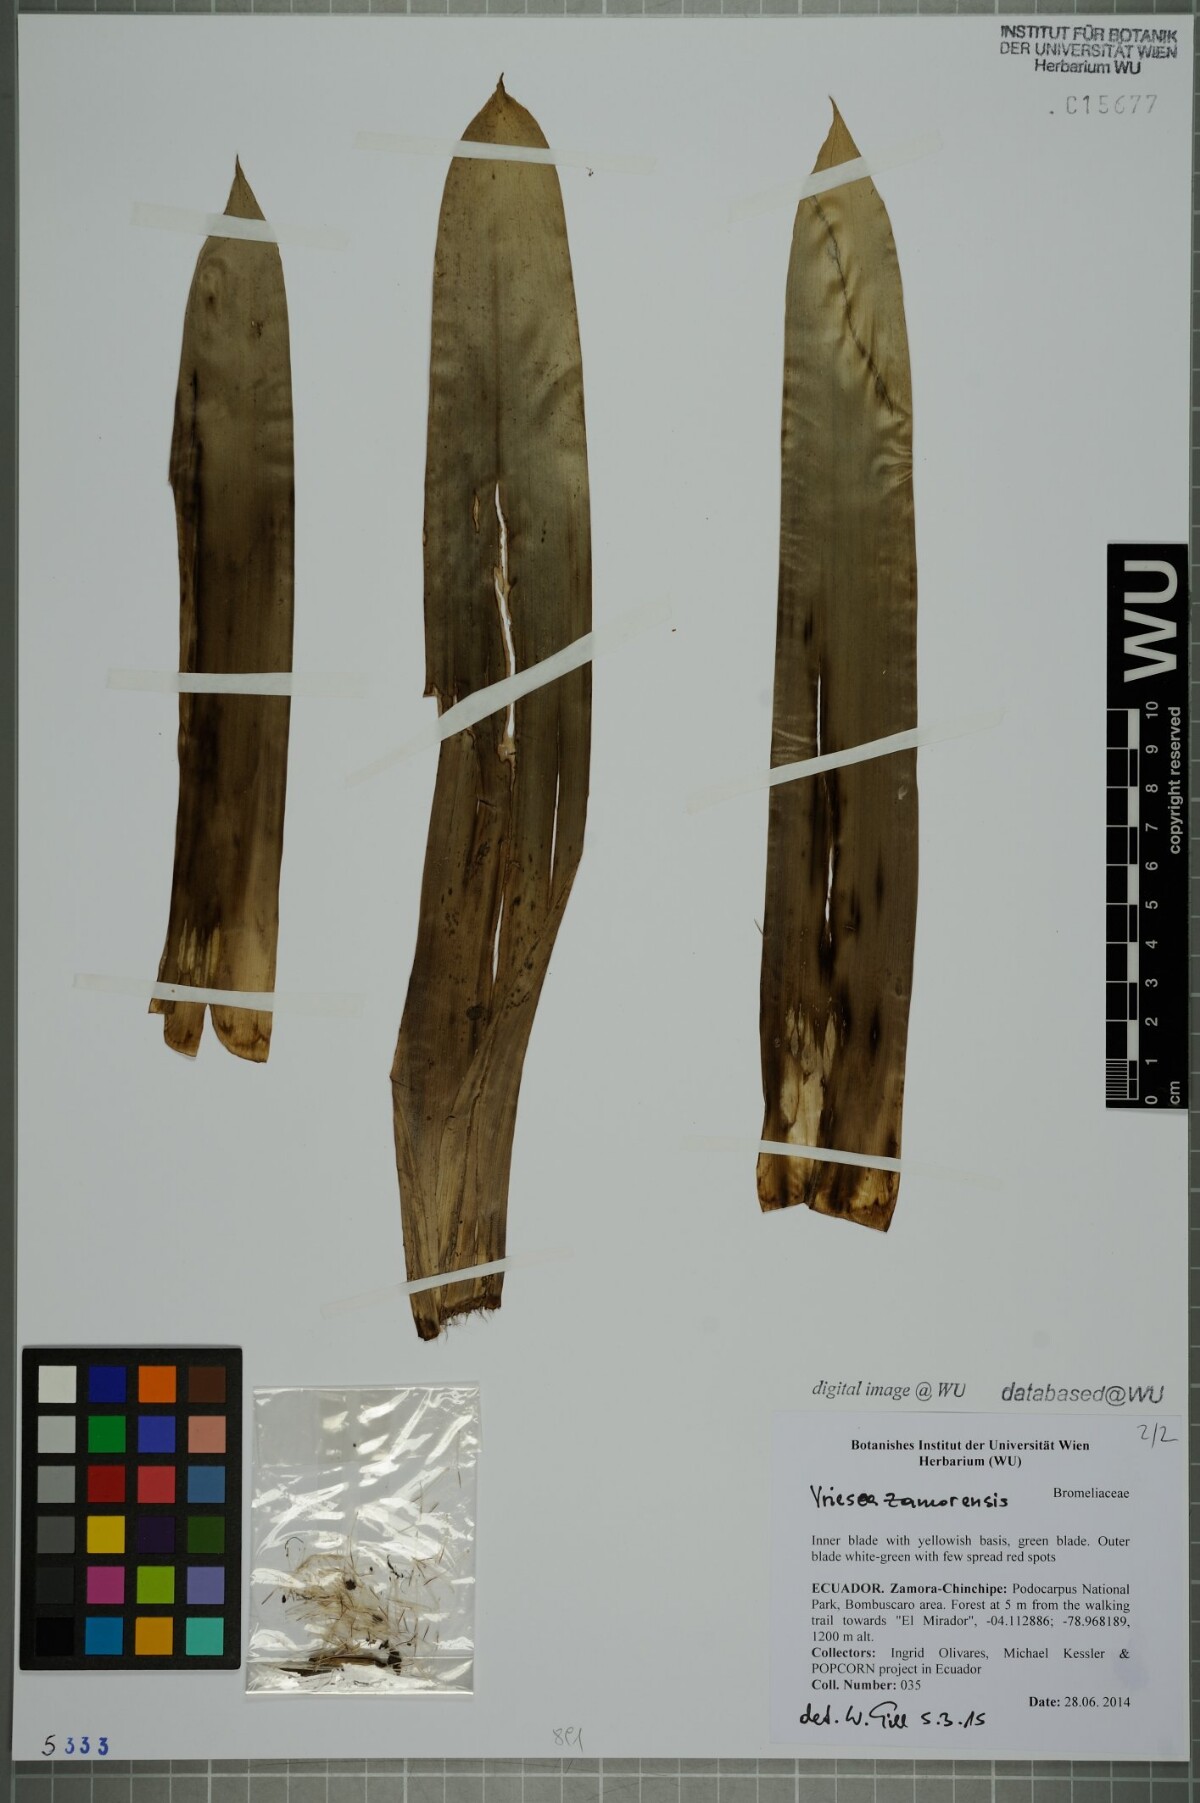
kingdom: Plantae
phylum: Tracheophyta
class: Liliopsida
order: Poales
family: Bromeliaceae
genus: Vriesea
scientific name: Vriesea zamorensis
